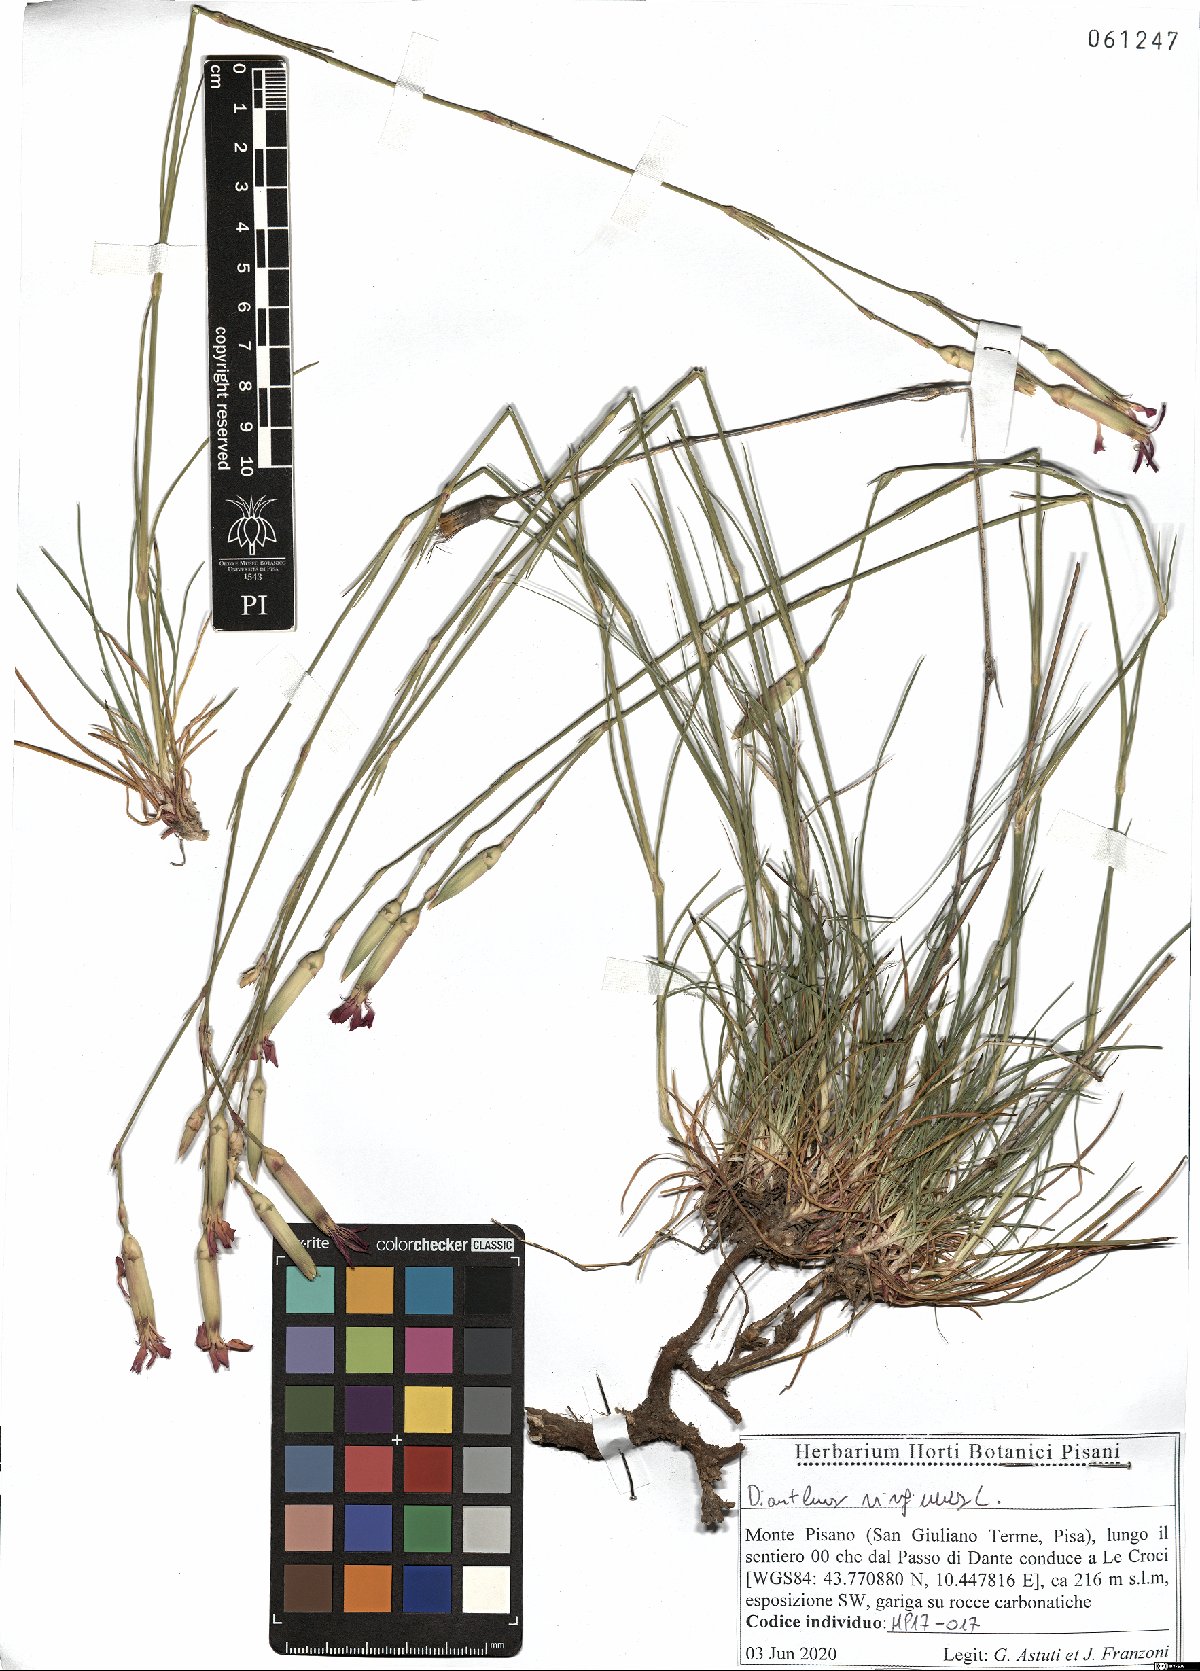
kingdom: Plantae
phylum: Tracheophyta
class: Magnoliopsida
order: Caryophyllales
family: Caryophyllaceae
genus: Dianthus
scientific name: Dianthus virgineus
